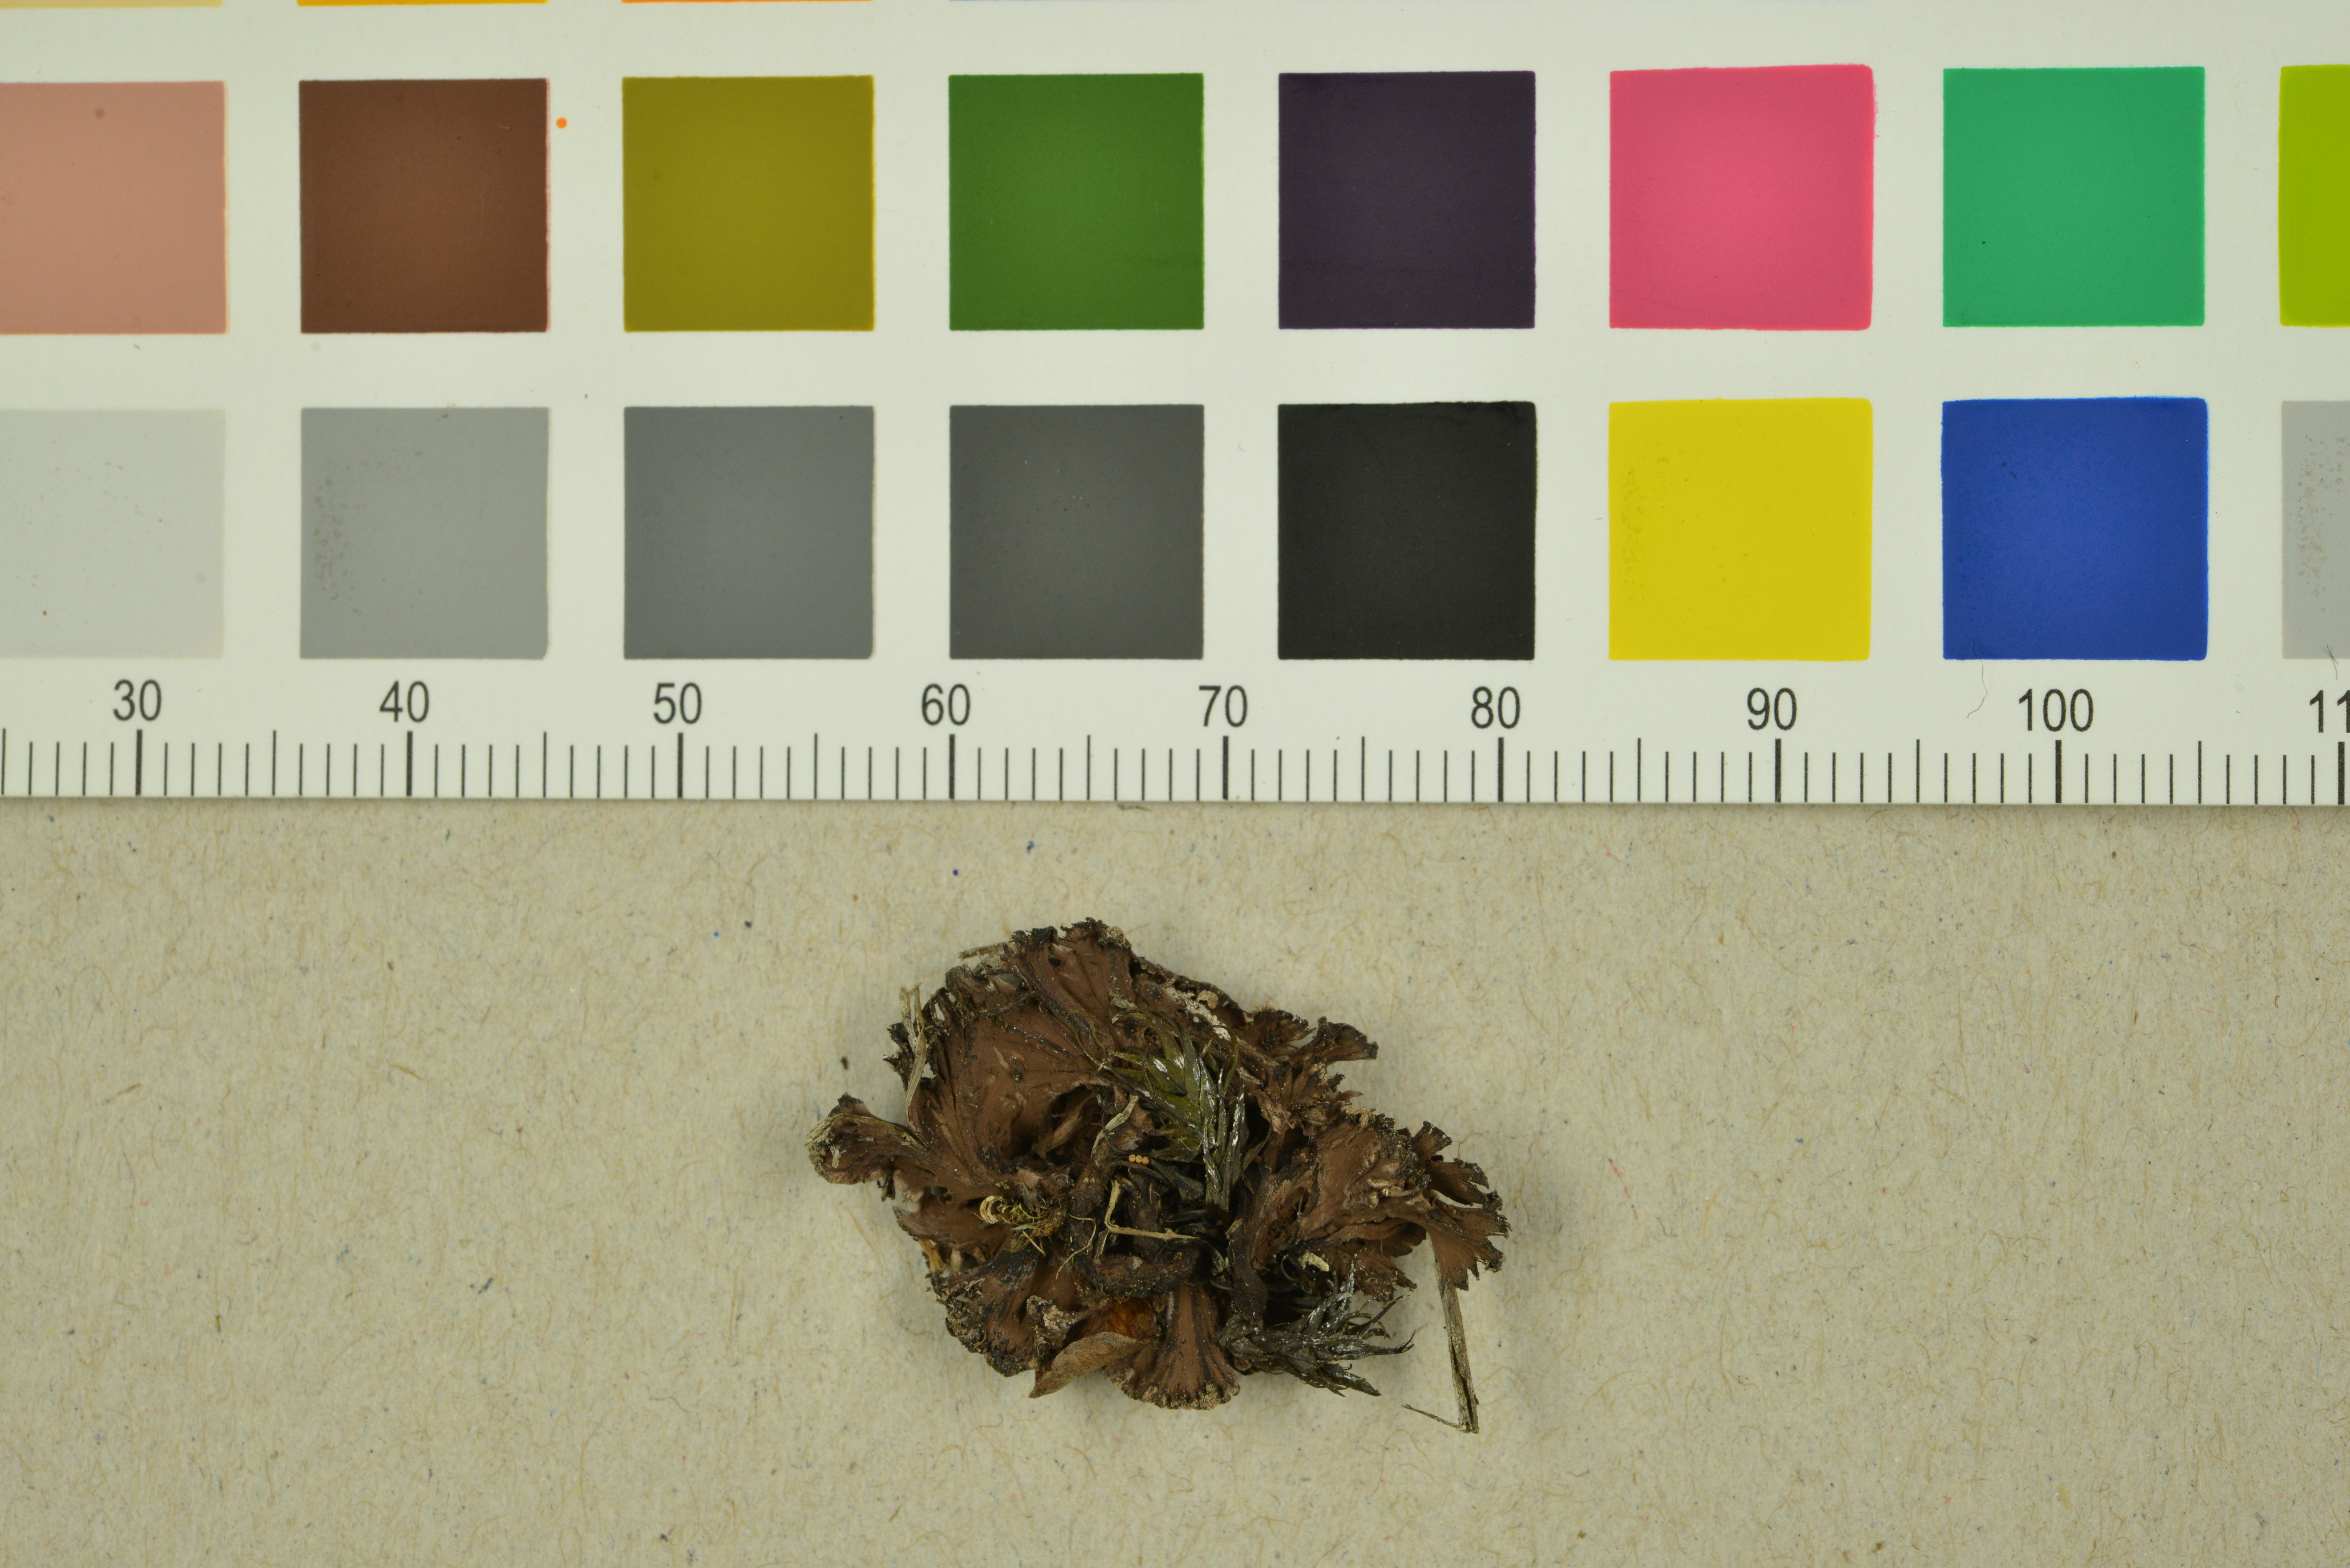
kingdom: Fungi
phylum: Basidiomycota
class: Agaricomycetes
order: Thelephorales
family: Thelephoraceae
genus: Thelephora
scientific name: Thelephora caryophyllea
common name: Carnation earthfan
